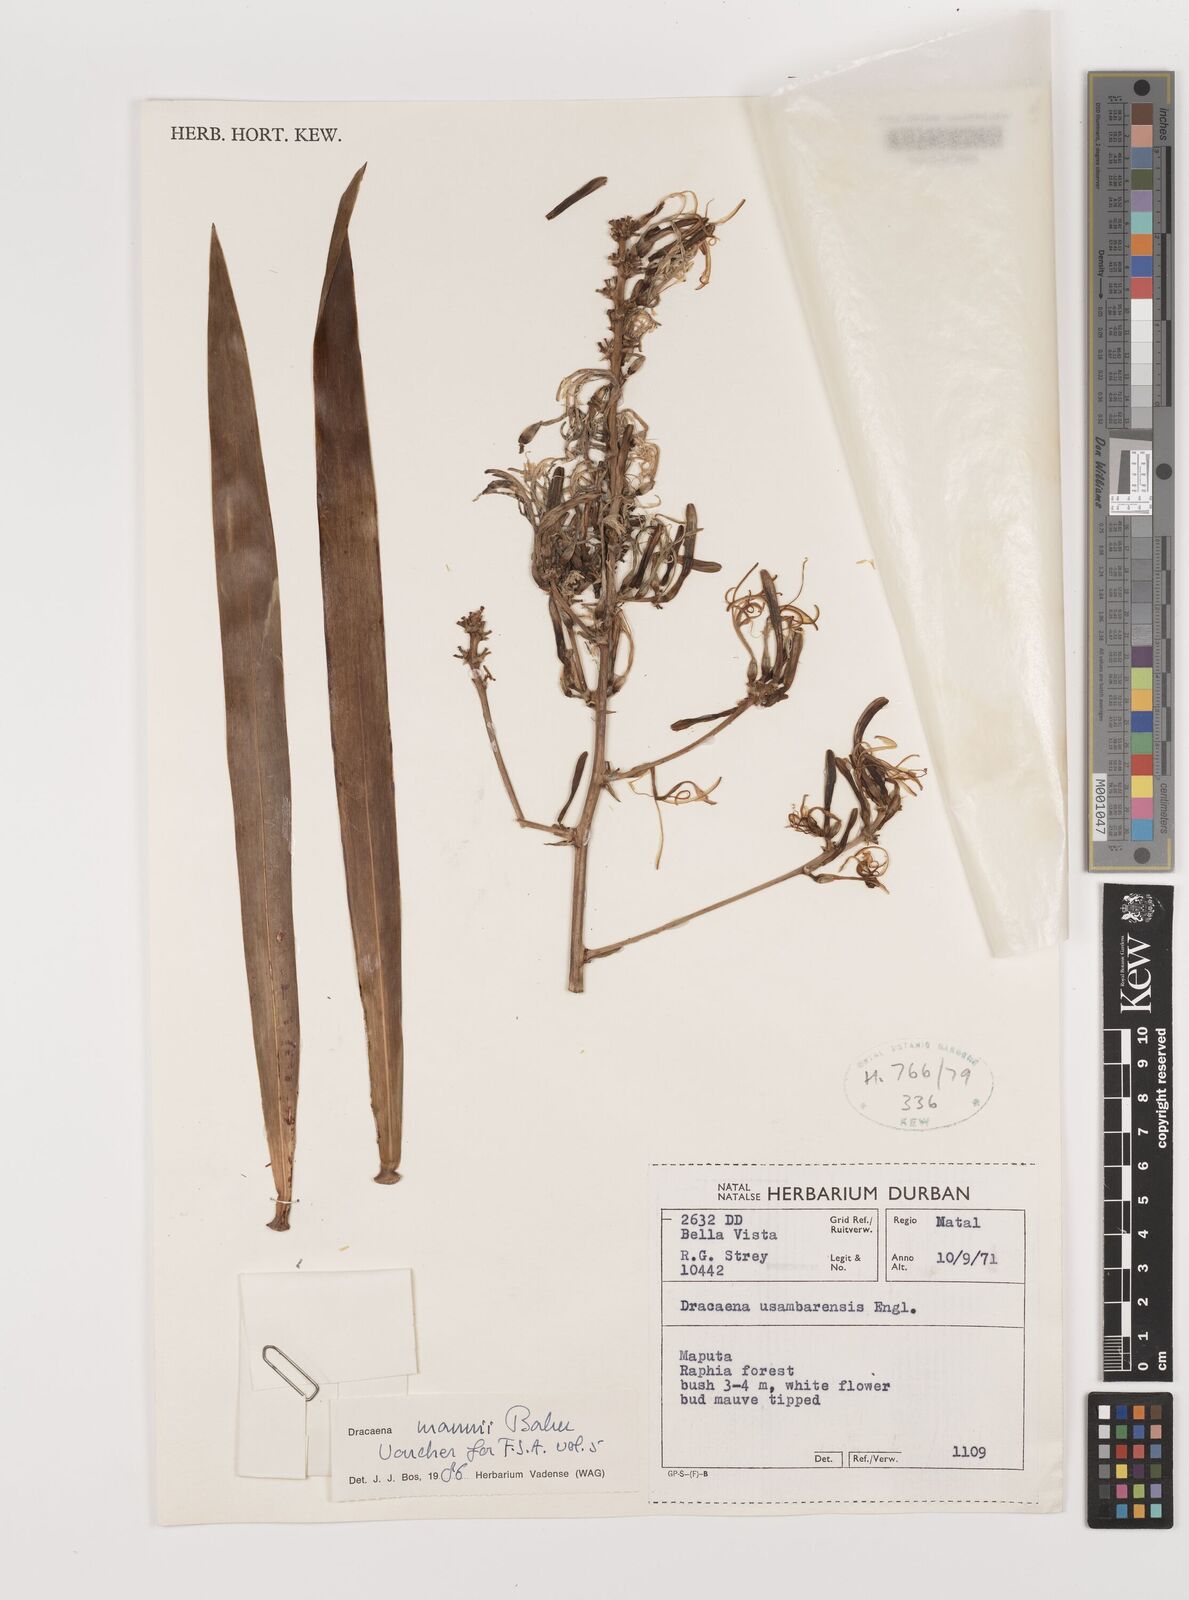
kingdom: Plantae
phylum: Tracheophyta
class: Liliopsida
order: Asparagales
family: Asparagaceae
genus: Dracaena
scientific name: Dracaena mannii
